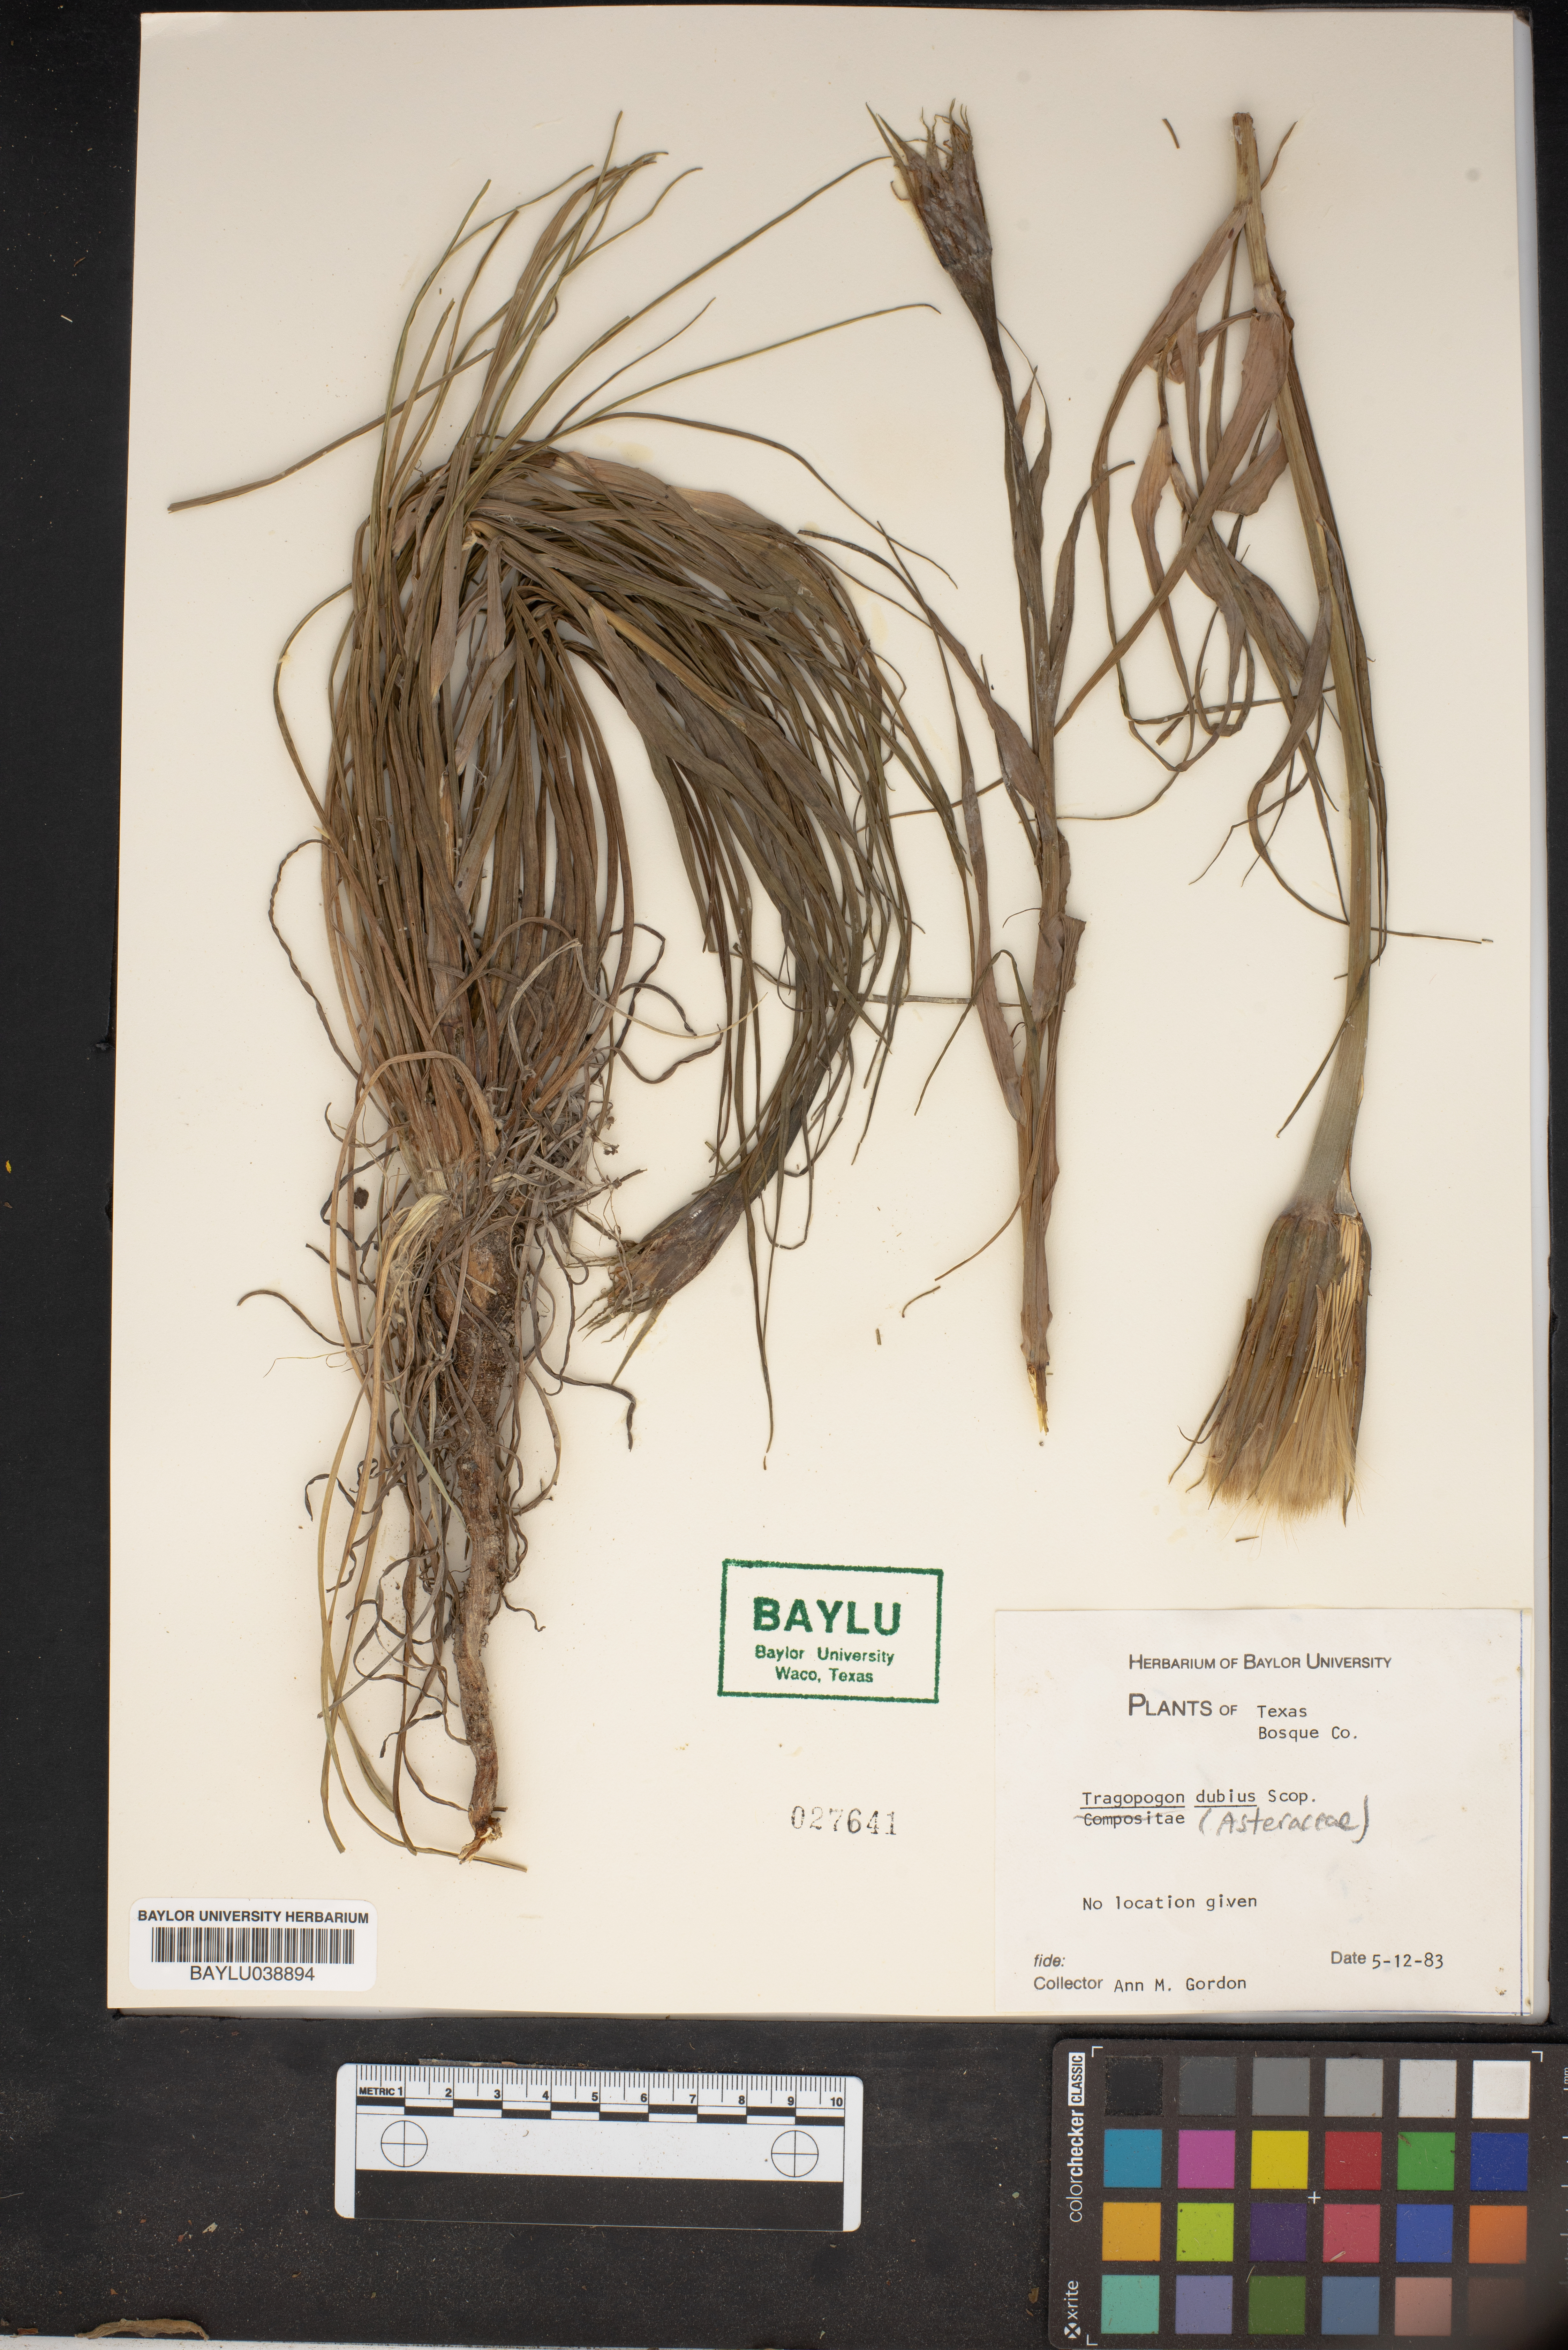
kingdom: Plantae
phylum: Tracheophyta
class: Magnoliopsida
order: Asterales
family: Asteraceae
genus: Tragopogon
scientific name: Tragopogon dubius
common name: Yellow salsify
